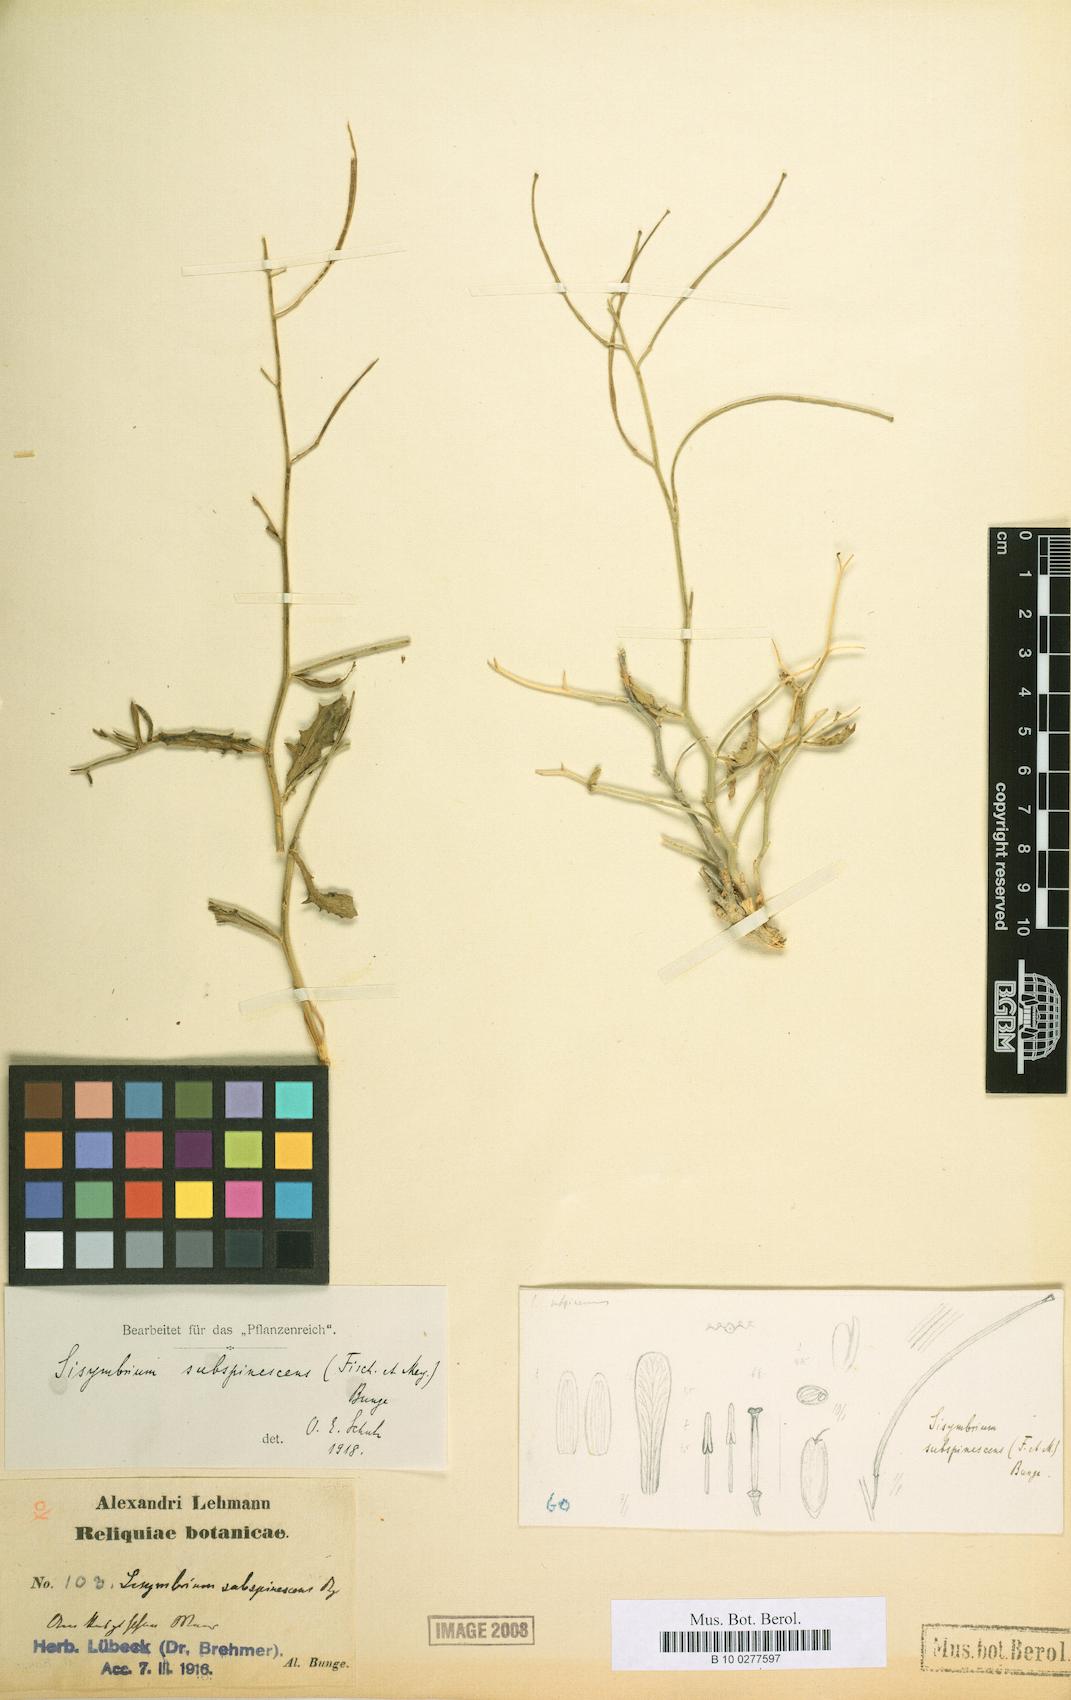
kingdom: Plantae
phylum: Tracheophyta
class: Magnoliopsida
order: Brassicales
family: Brassicaceae
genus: Sisymbrium
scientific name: Sisymbrium subspinescens
